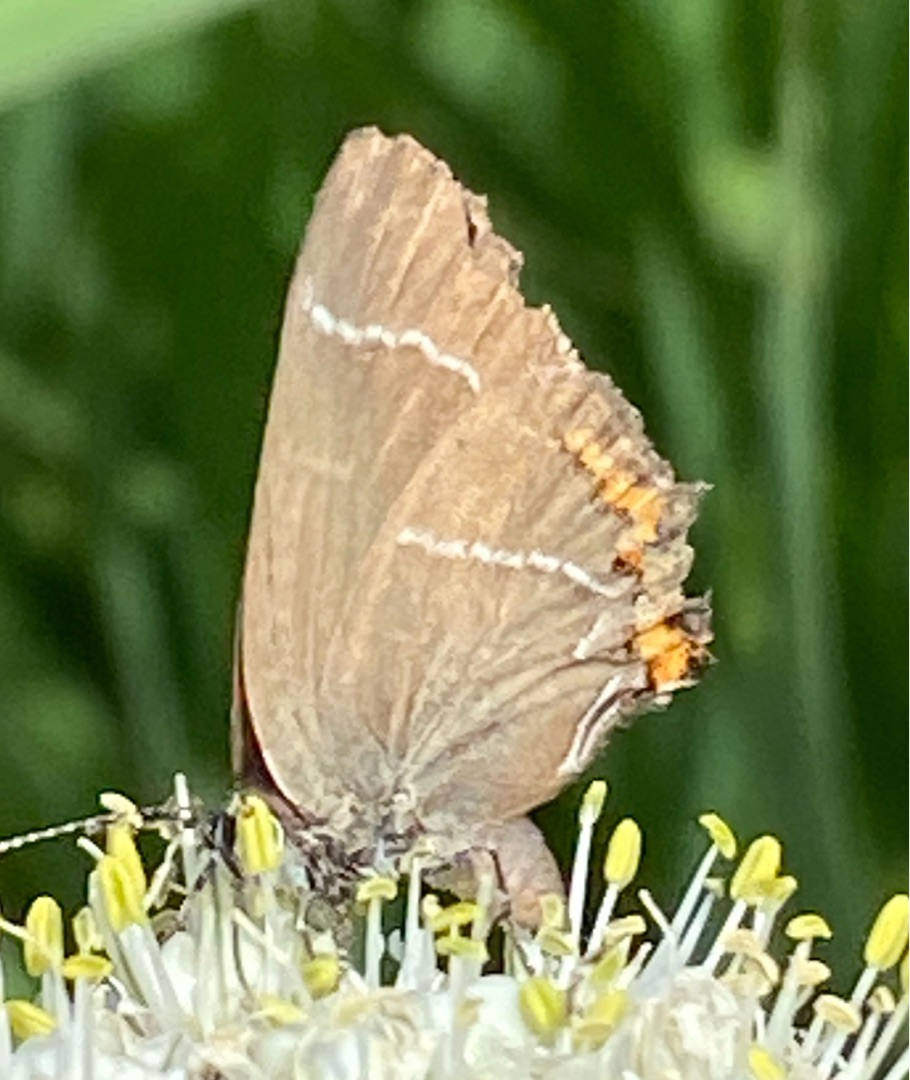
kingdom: Animalia
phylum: Arthropoda
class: Insecta
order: Lepidoptera
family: Lycaenidae
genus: Satyrium
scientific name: Satyrium w-album
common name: Det hvide W
